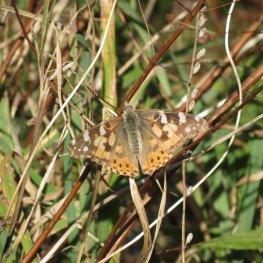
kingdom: Animalia
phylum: Arthropoda
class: Insecta
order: Lepidoptera
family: Nymphalidae
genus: Vanessa
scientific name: Vanessa cardui
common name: Painted Lady
